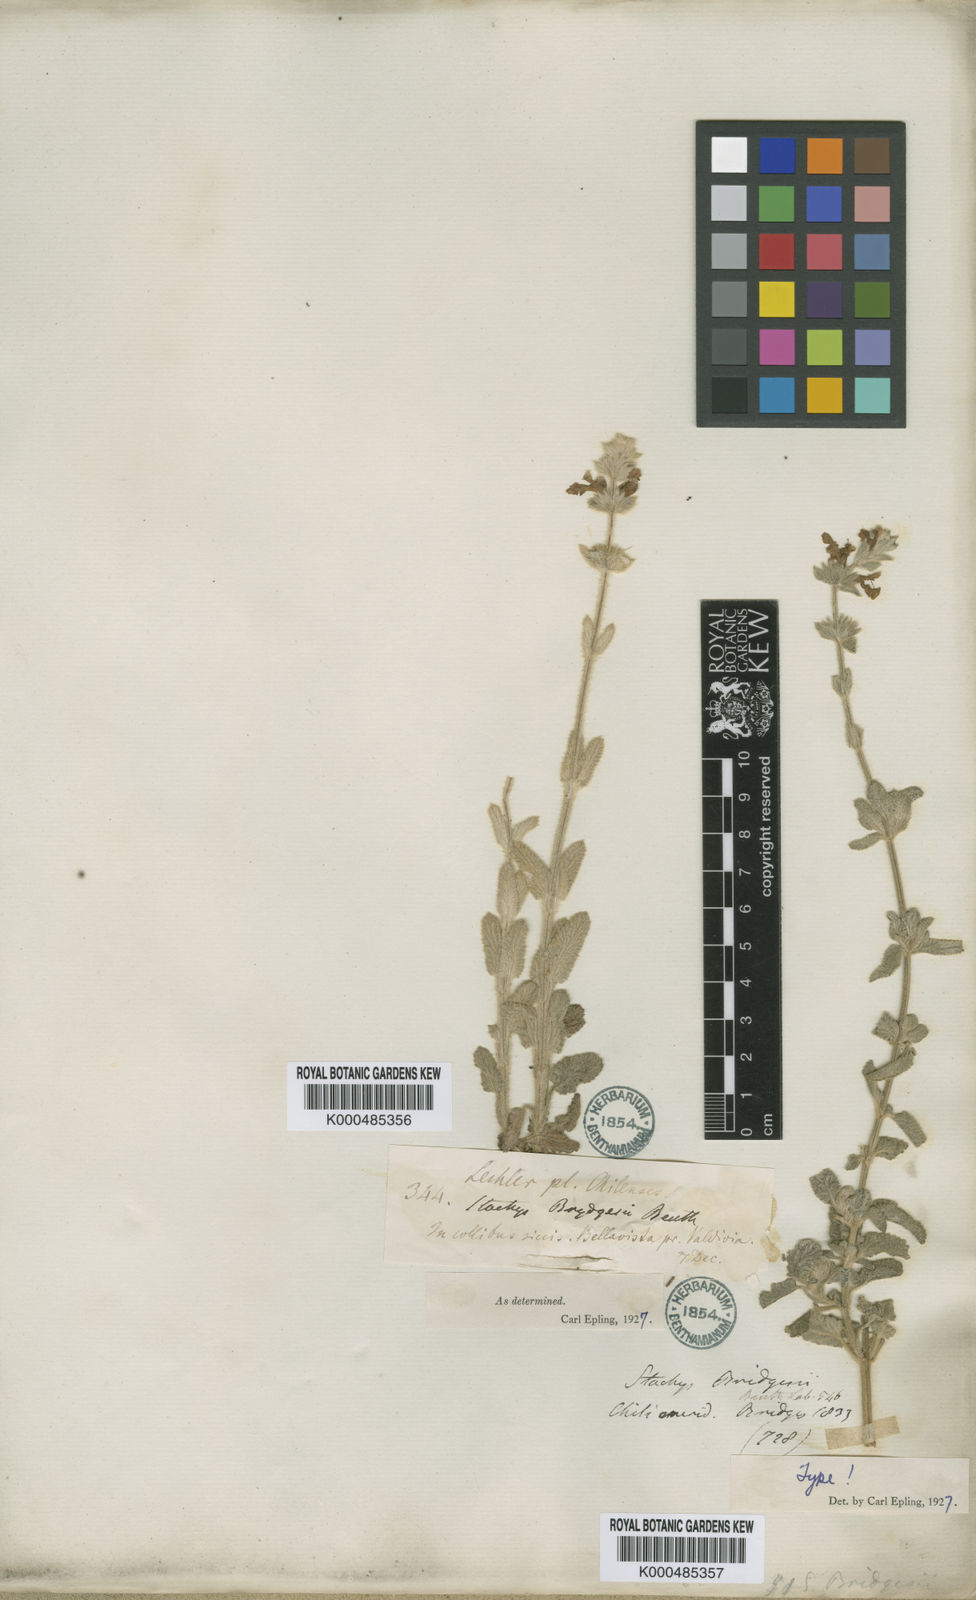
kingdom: Plantae
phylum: Tracheophyta
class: Magnoliopsida
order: Lamiales
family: Lamiaceae
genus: Stachys
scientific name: Stachys bridgesii
